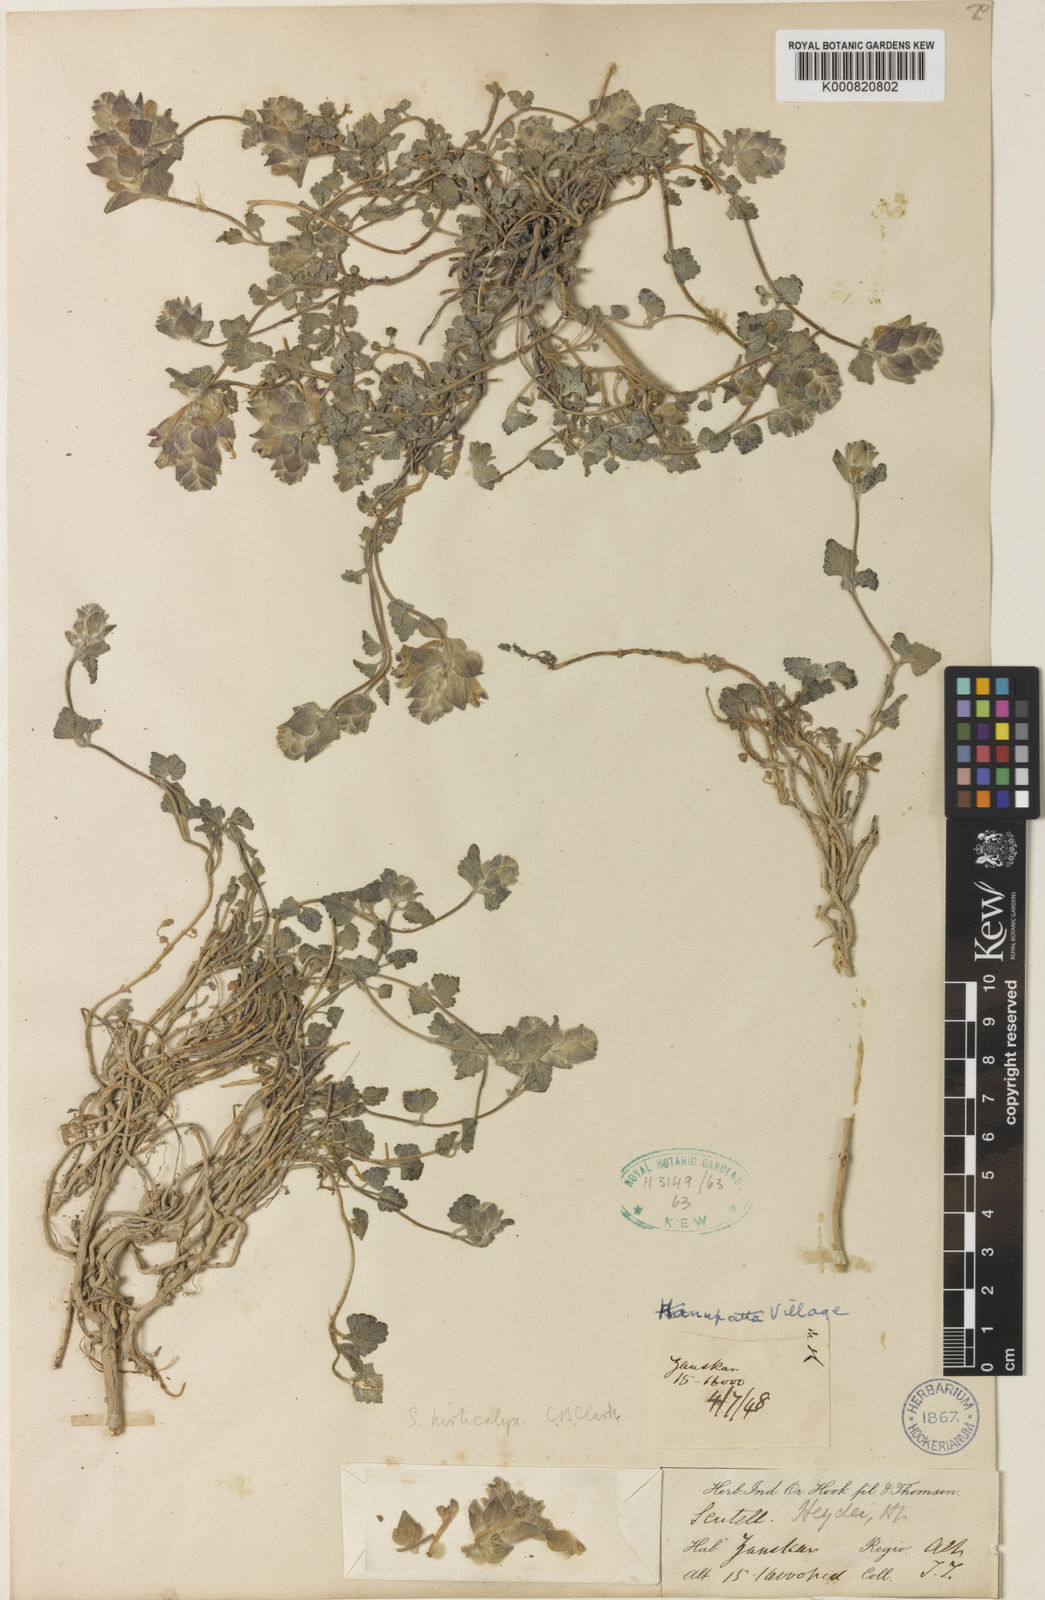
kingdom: Plantae
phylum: Tracheophyta
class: Magnoliopsida
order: Lamiales
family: Lamiaceae
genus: Scutellaria
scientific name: Scutellaria heydei
